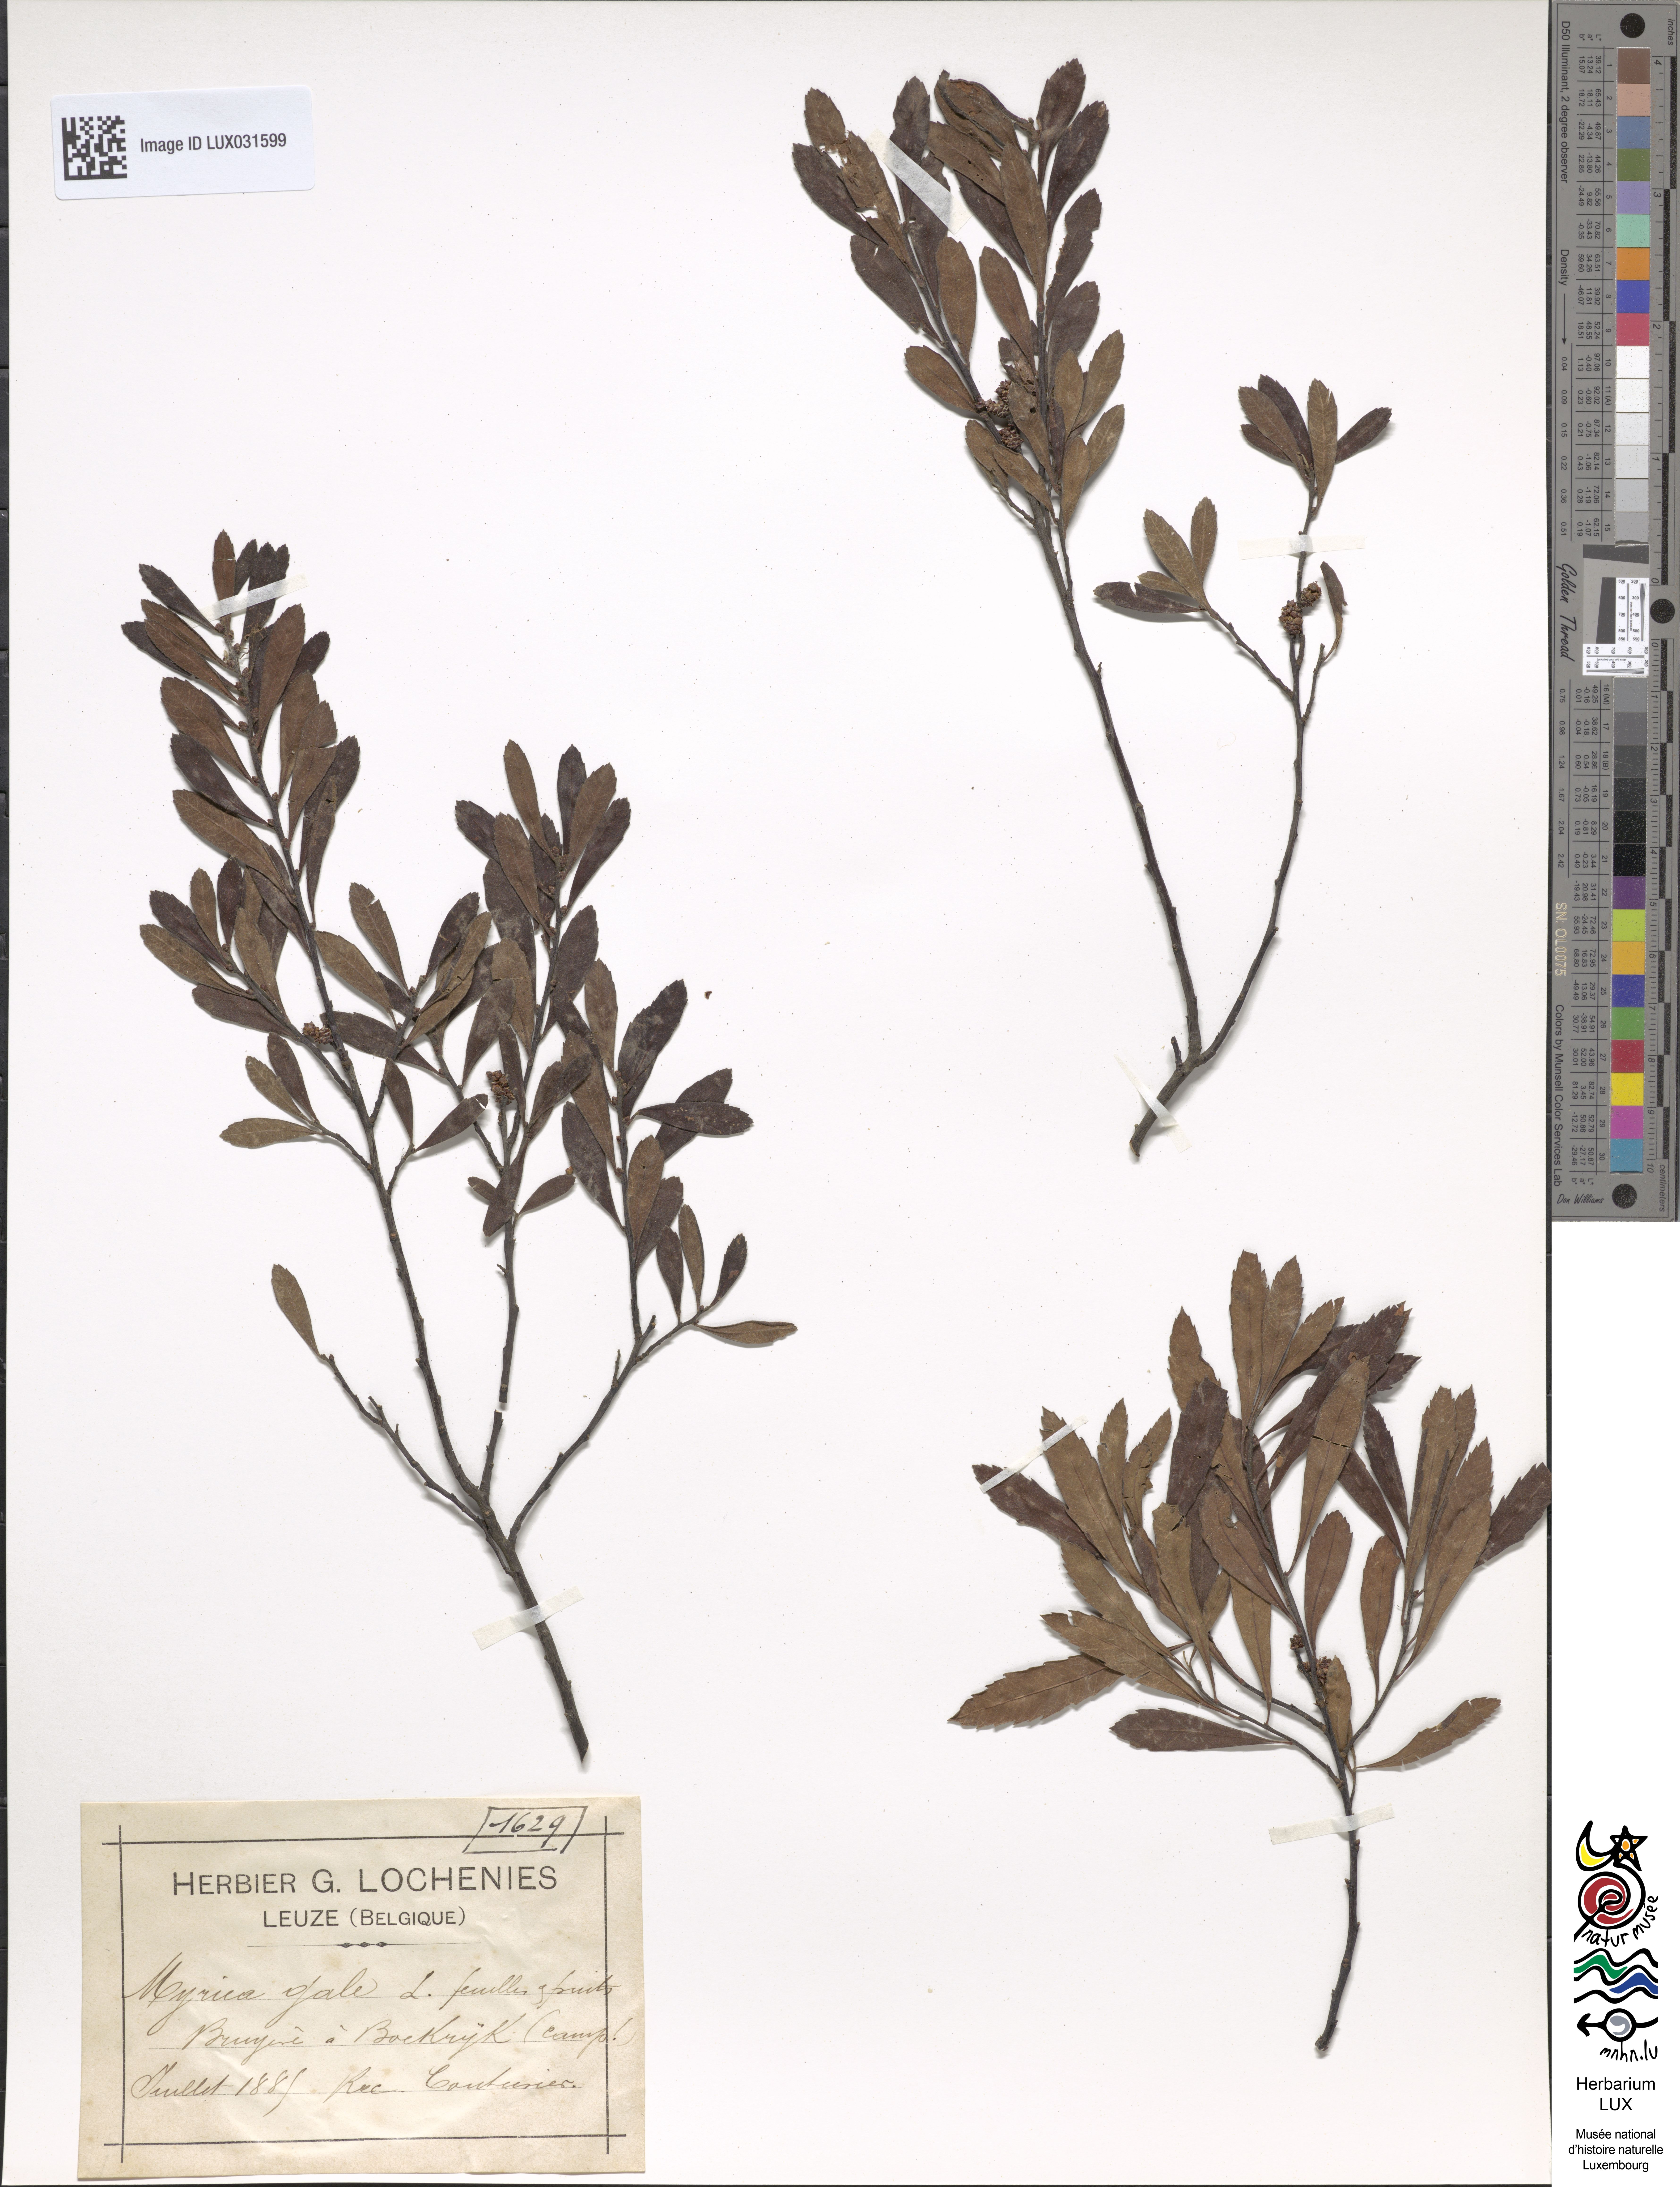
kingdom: Plantae
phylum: Tracheophyta
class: Magnoliopsida
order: Fagales
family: Myricaceae
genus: Myrica
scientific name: Myrica gale
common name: Sweet gale
